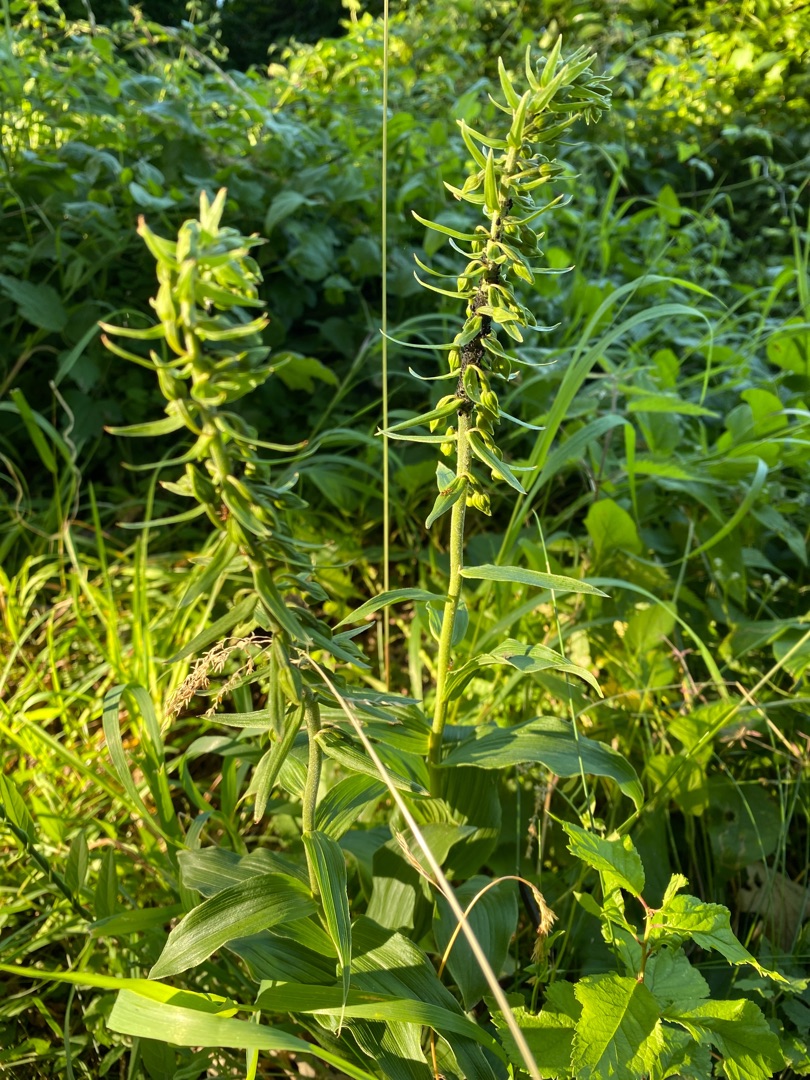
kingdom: Plantae
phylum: Tracheophyta
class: Liliopsida
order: Asparagales
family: Orchidaceae
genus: Epipactis
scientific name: Epipactis helleborine
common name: Skov-hullæbe
